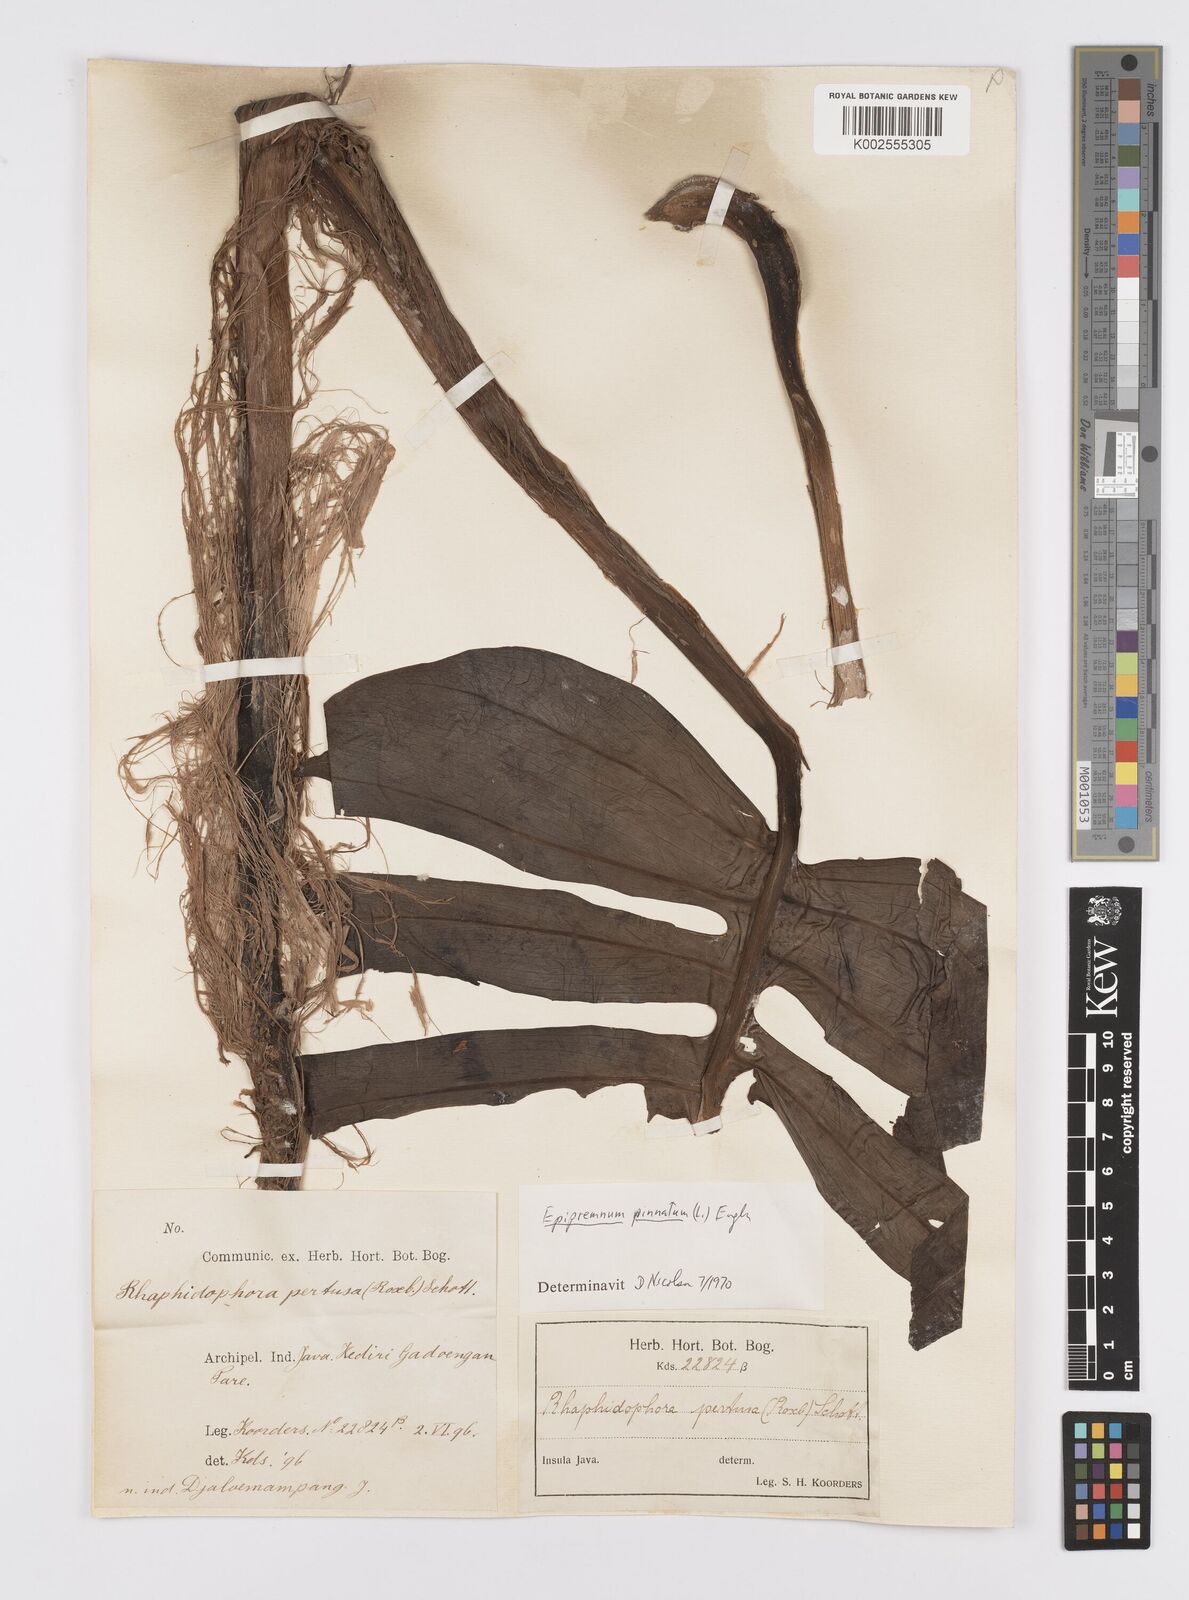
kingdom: Plantae
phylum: Tracheophyta
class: Liliopsida
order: Alismatales
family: Araceae
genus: Epipremnum
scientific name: Epipremnum pinnatum
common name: Centipede tongavine
